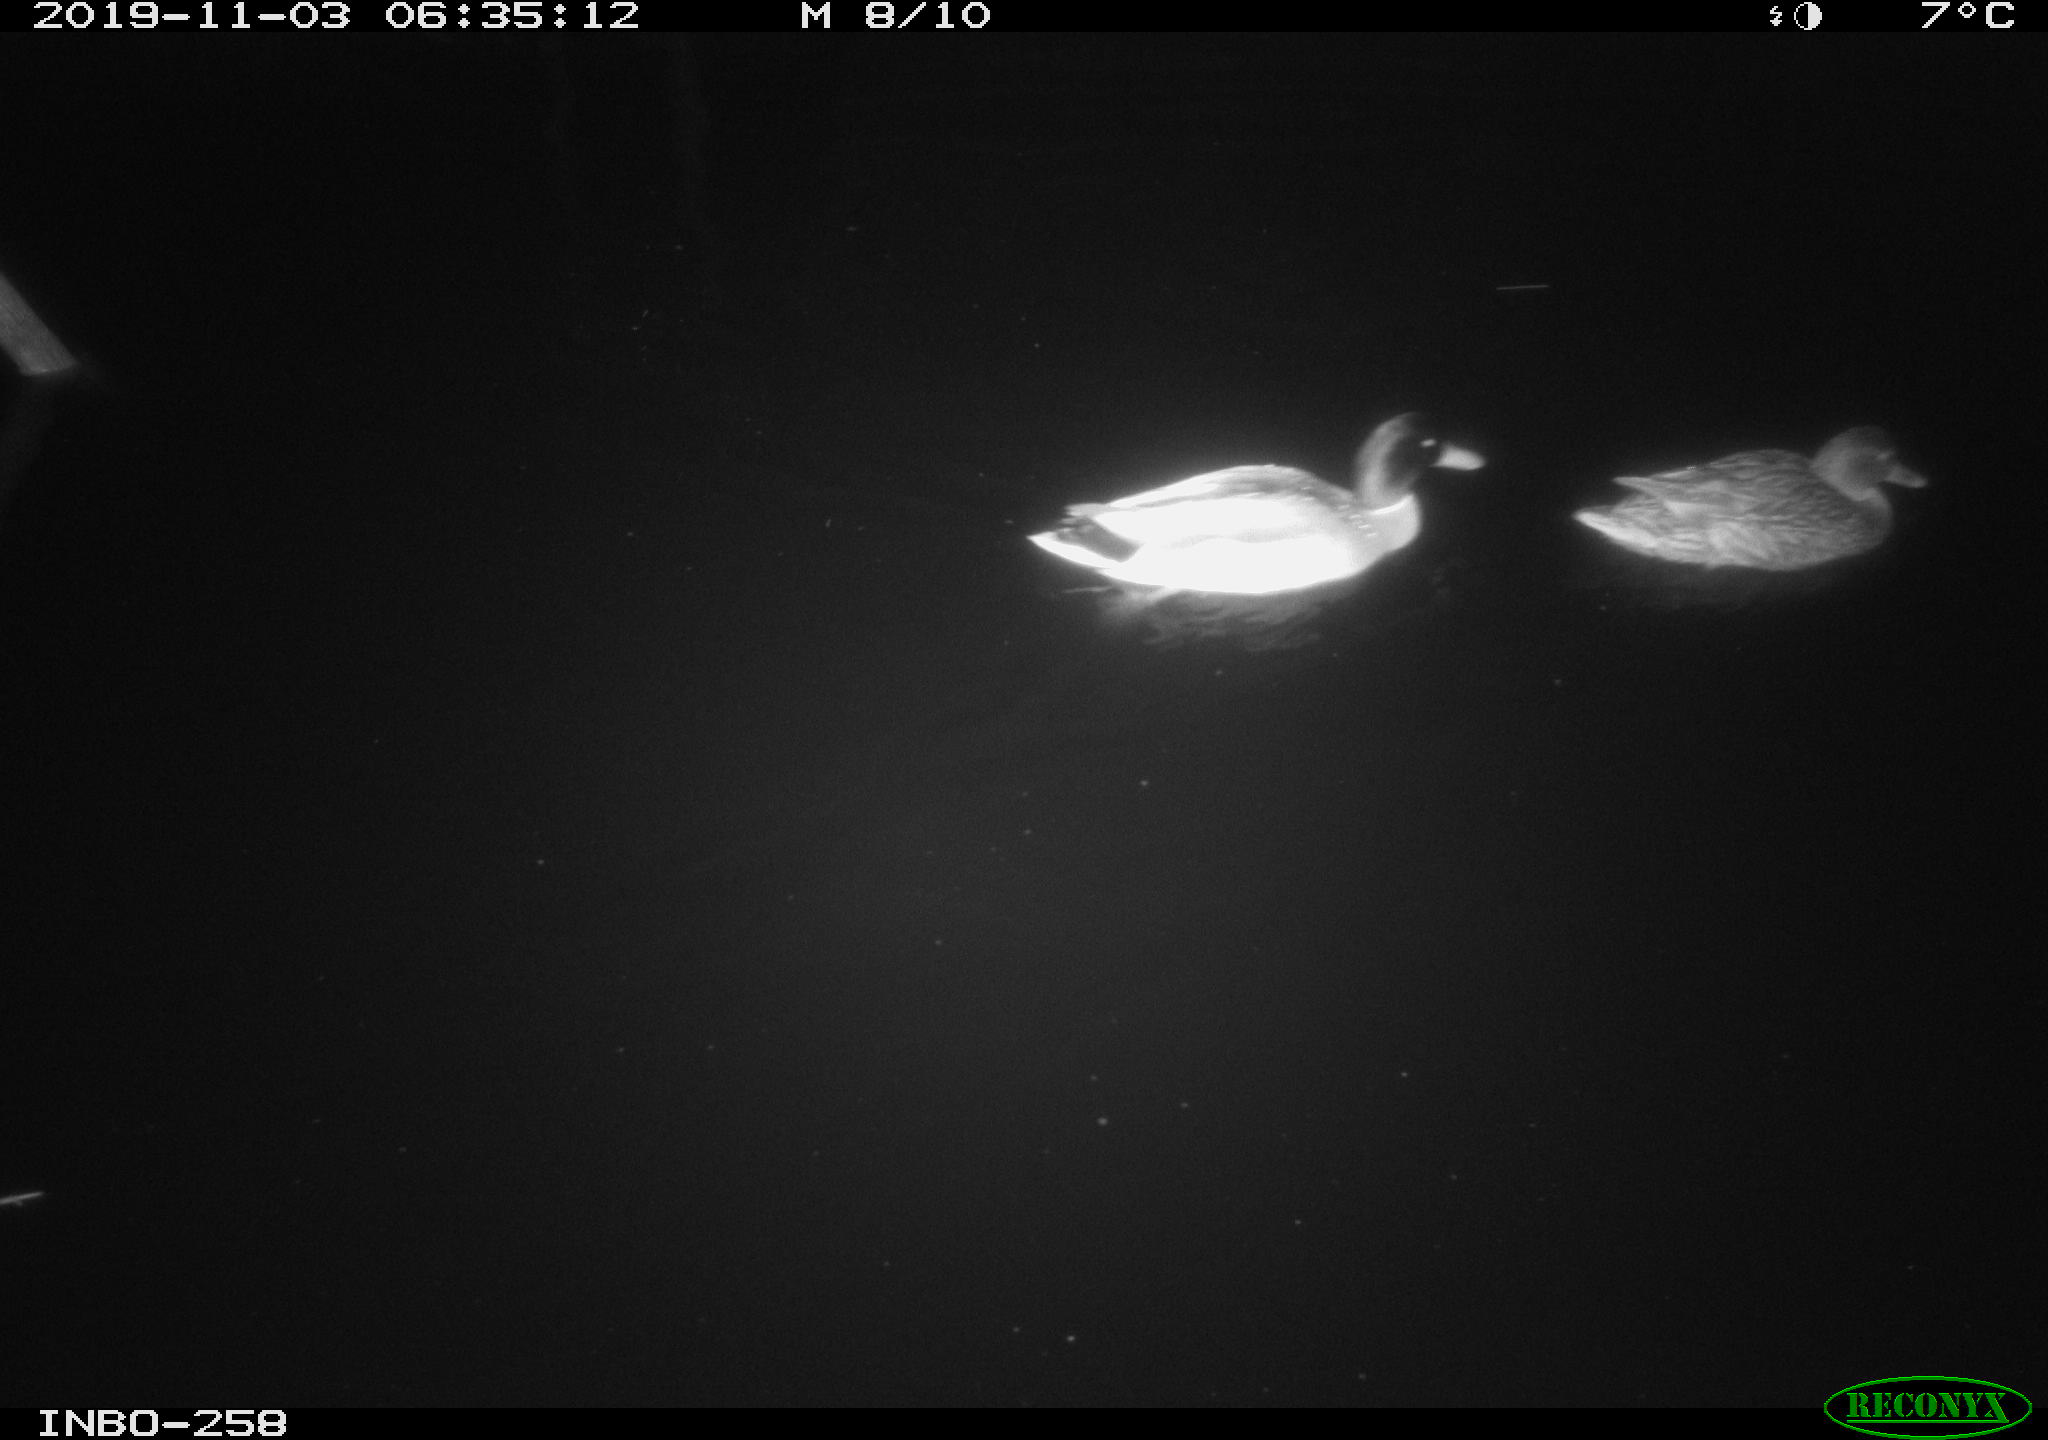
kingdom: Animalia
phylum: Chordata
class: Aves
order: Anseriformes
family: Anatidae
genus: Anas
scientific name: Anas platyrhynchos
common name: Mallard
